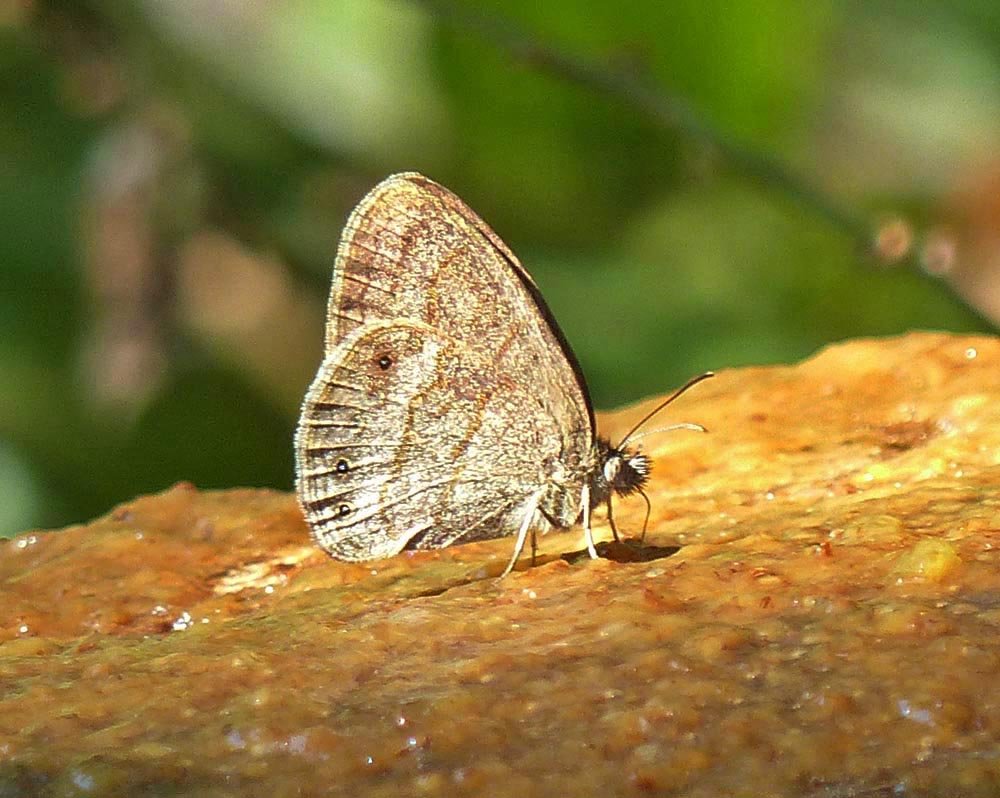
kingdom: Animalia
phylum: Arthropoda
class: Insecta
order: Lepidoptera
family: Nymphalidae
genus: Hermeuptychia
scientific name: Hermeuptychia hermybius
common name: South Texas Satyr
